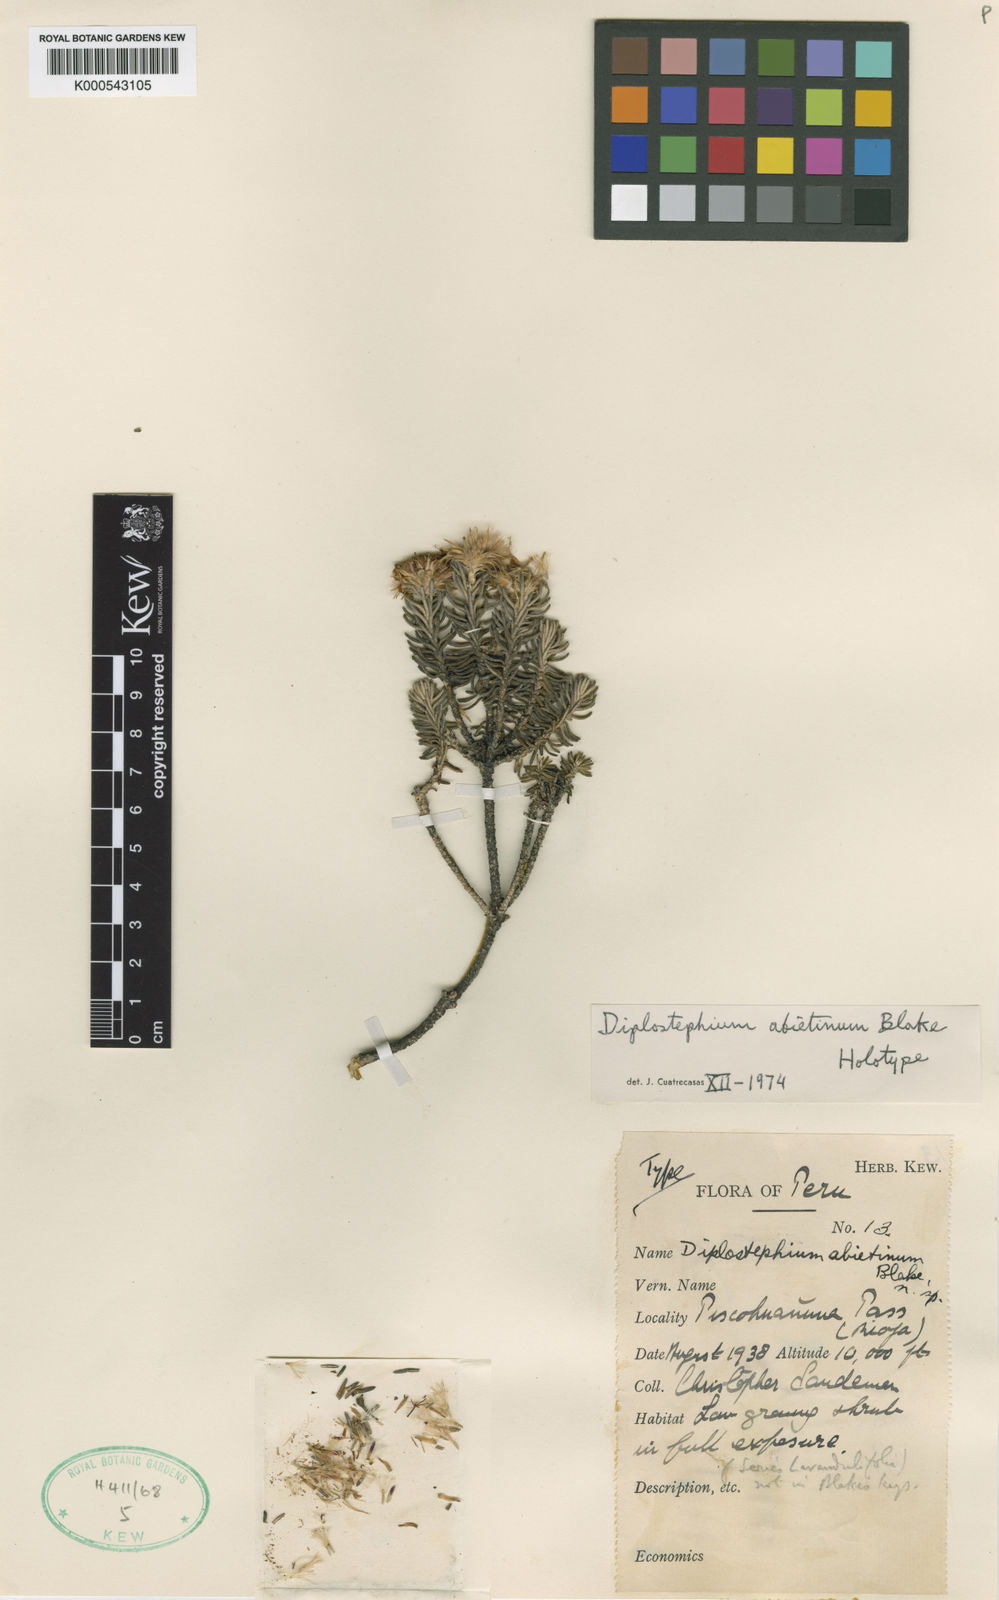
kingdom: Plantae
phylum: Tracheophyta
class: Magnoliopsida
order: Asterales
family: Asteraceae
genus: Diplostephium
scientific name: Diplostephium abietinum
